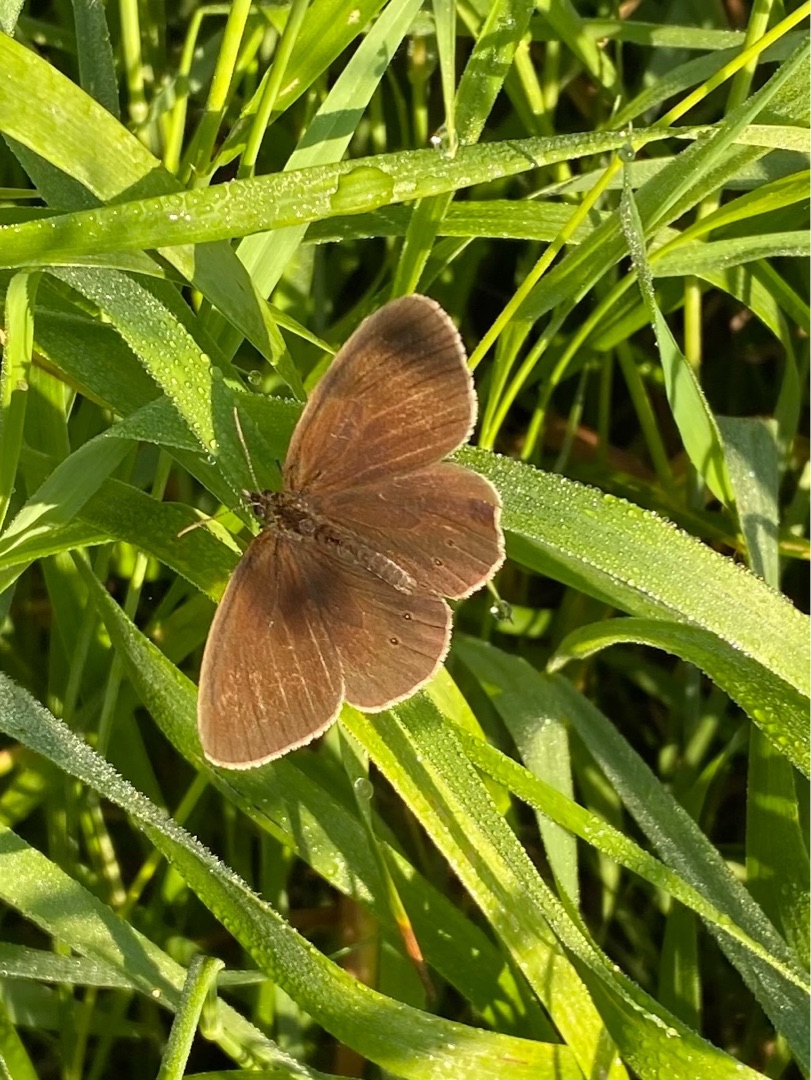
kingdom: Animalia
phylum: Arthropoda
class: Insecta
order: Lepidoptera
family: Nymphalidae
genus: Aphantopus
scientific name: Aphantopus hyperantus
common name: Engrandøje
